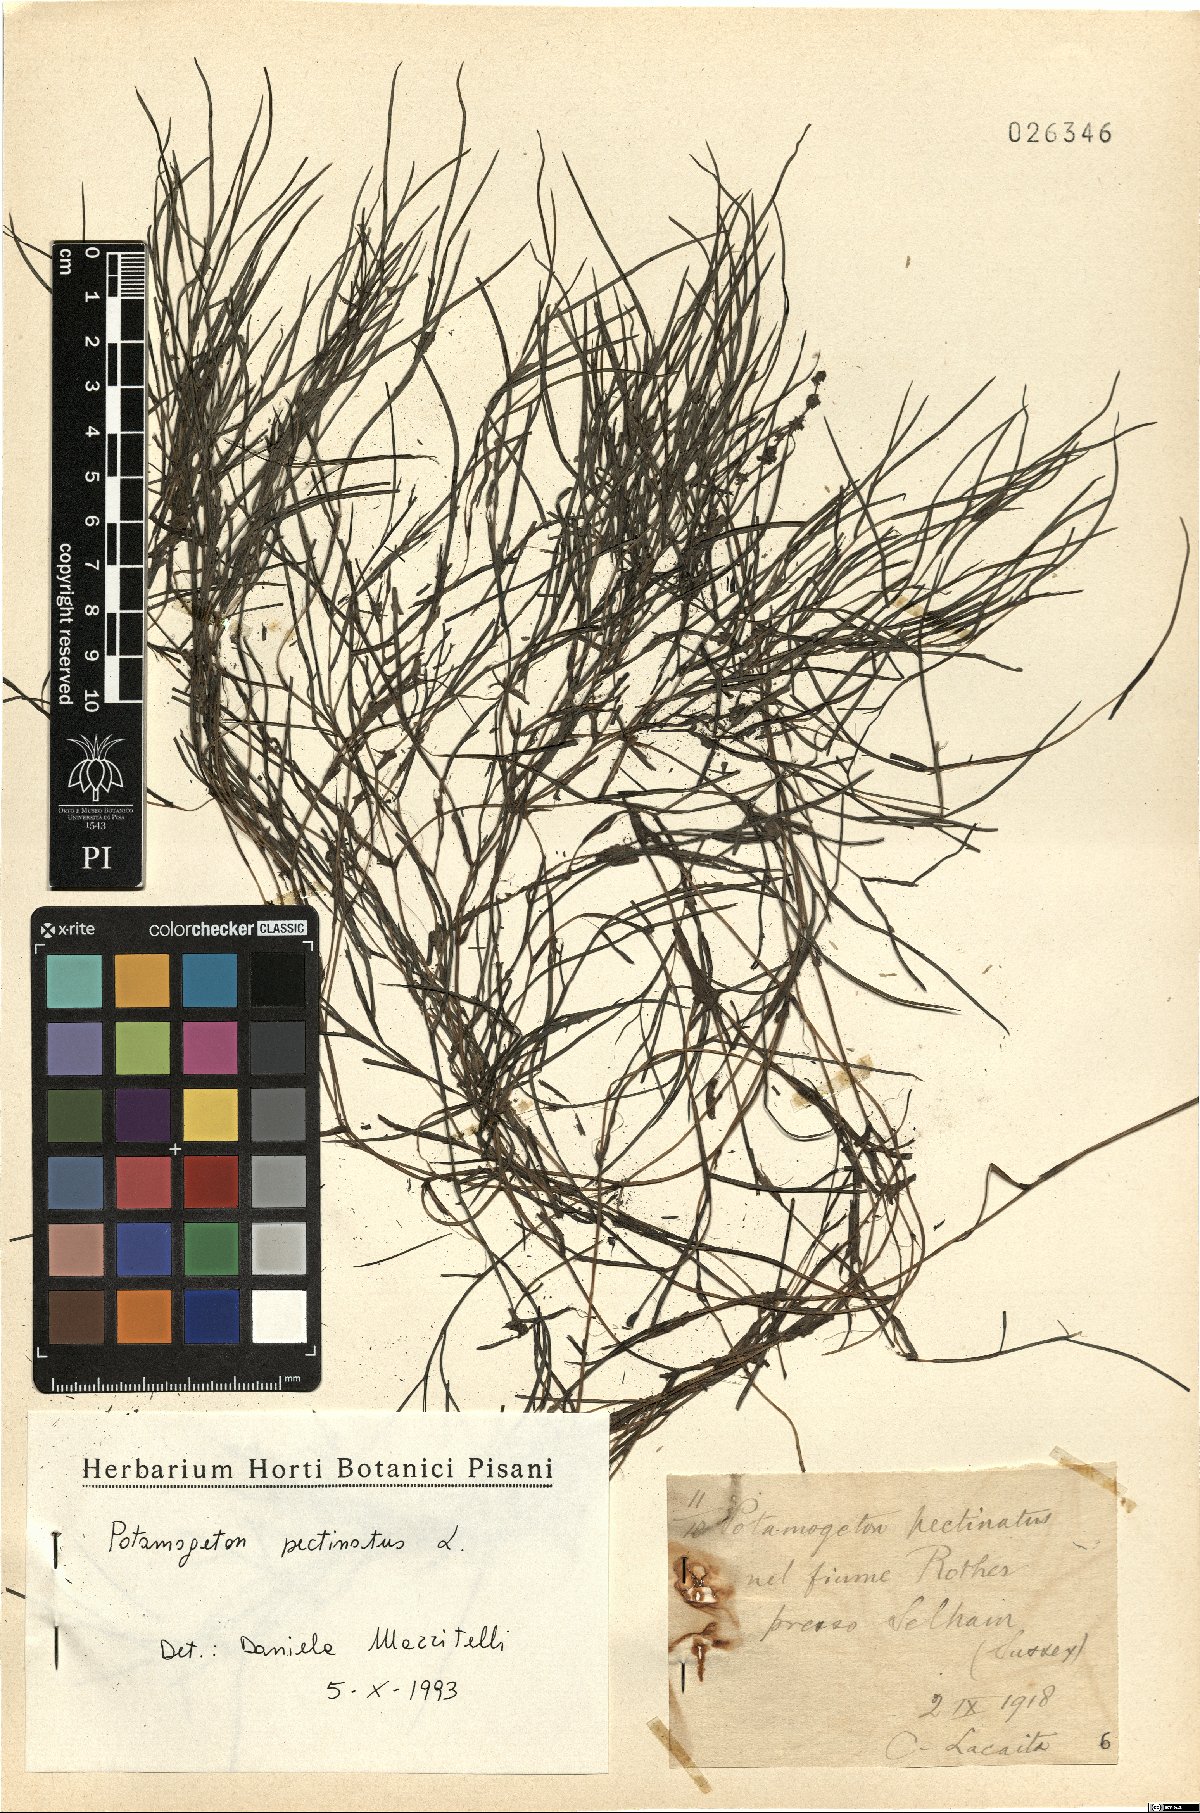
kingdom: Plantae
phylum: Tracheophyta
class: Liliopsida
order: Alismatales
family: Potamogetonaceae
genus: Stuckenia
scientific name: Stuckenia pectinata
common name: Sago pondweed
